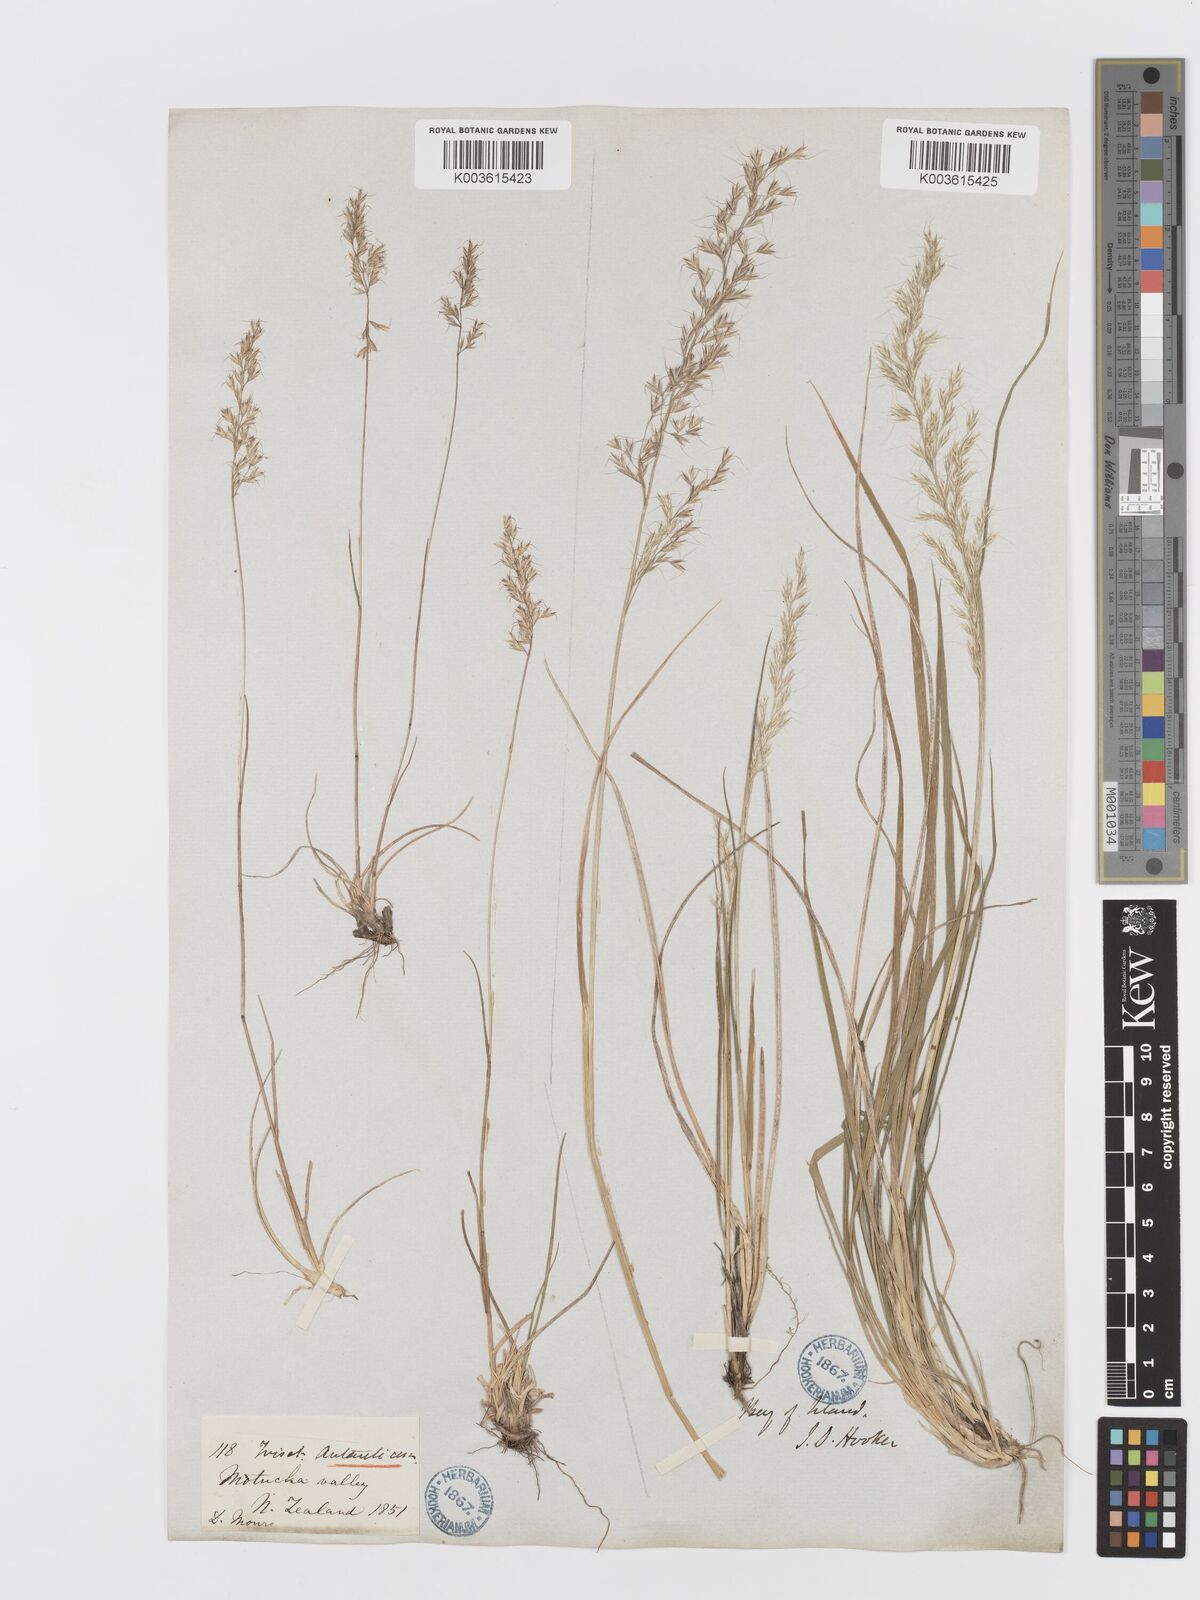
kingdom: Plantae
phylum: Tracheophyta
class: Liliopsida
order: Poales
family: Poaceae
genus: Koeleria
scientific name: Koeleria antarctica
